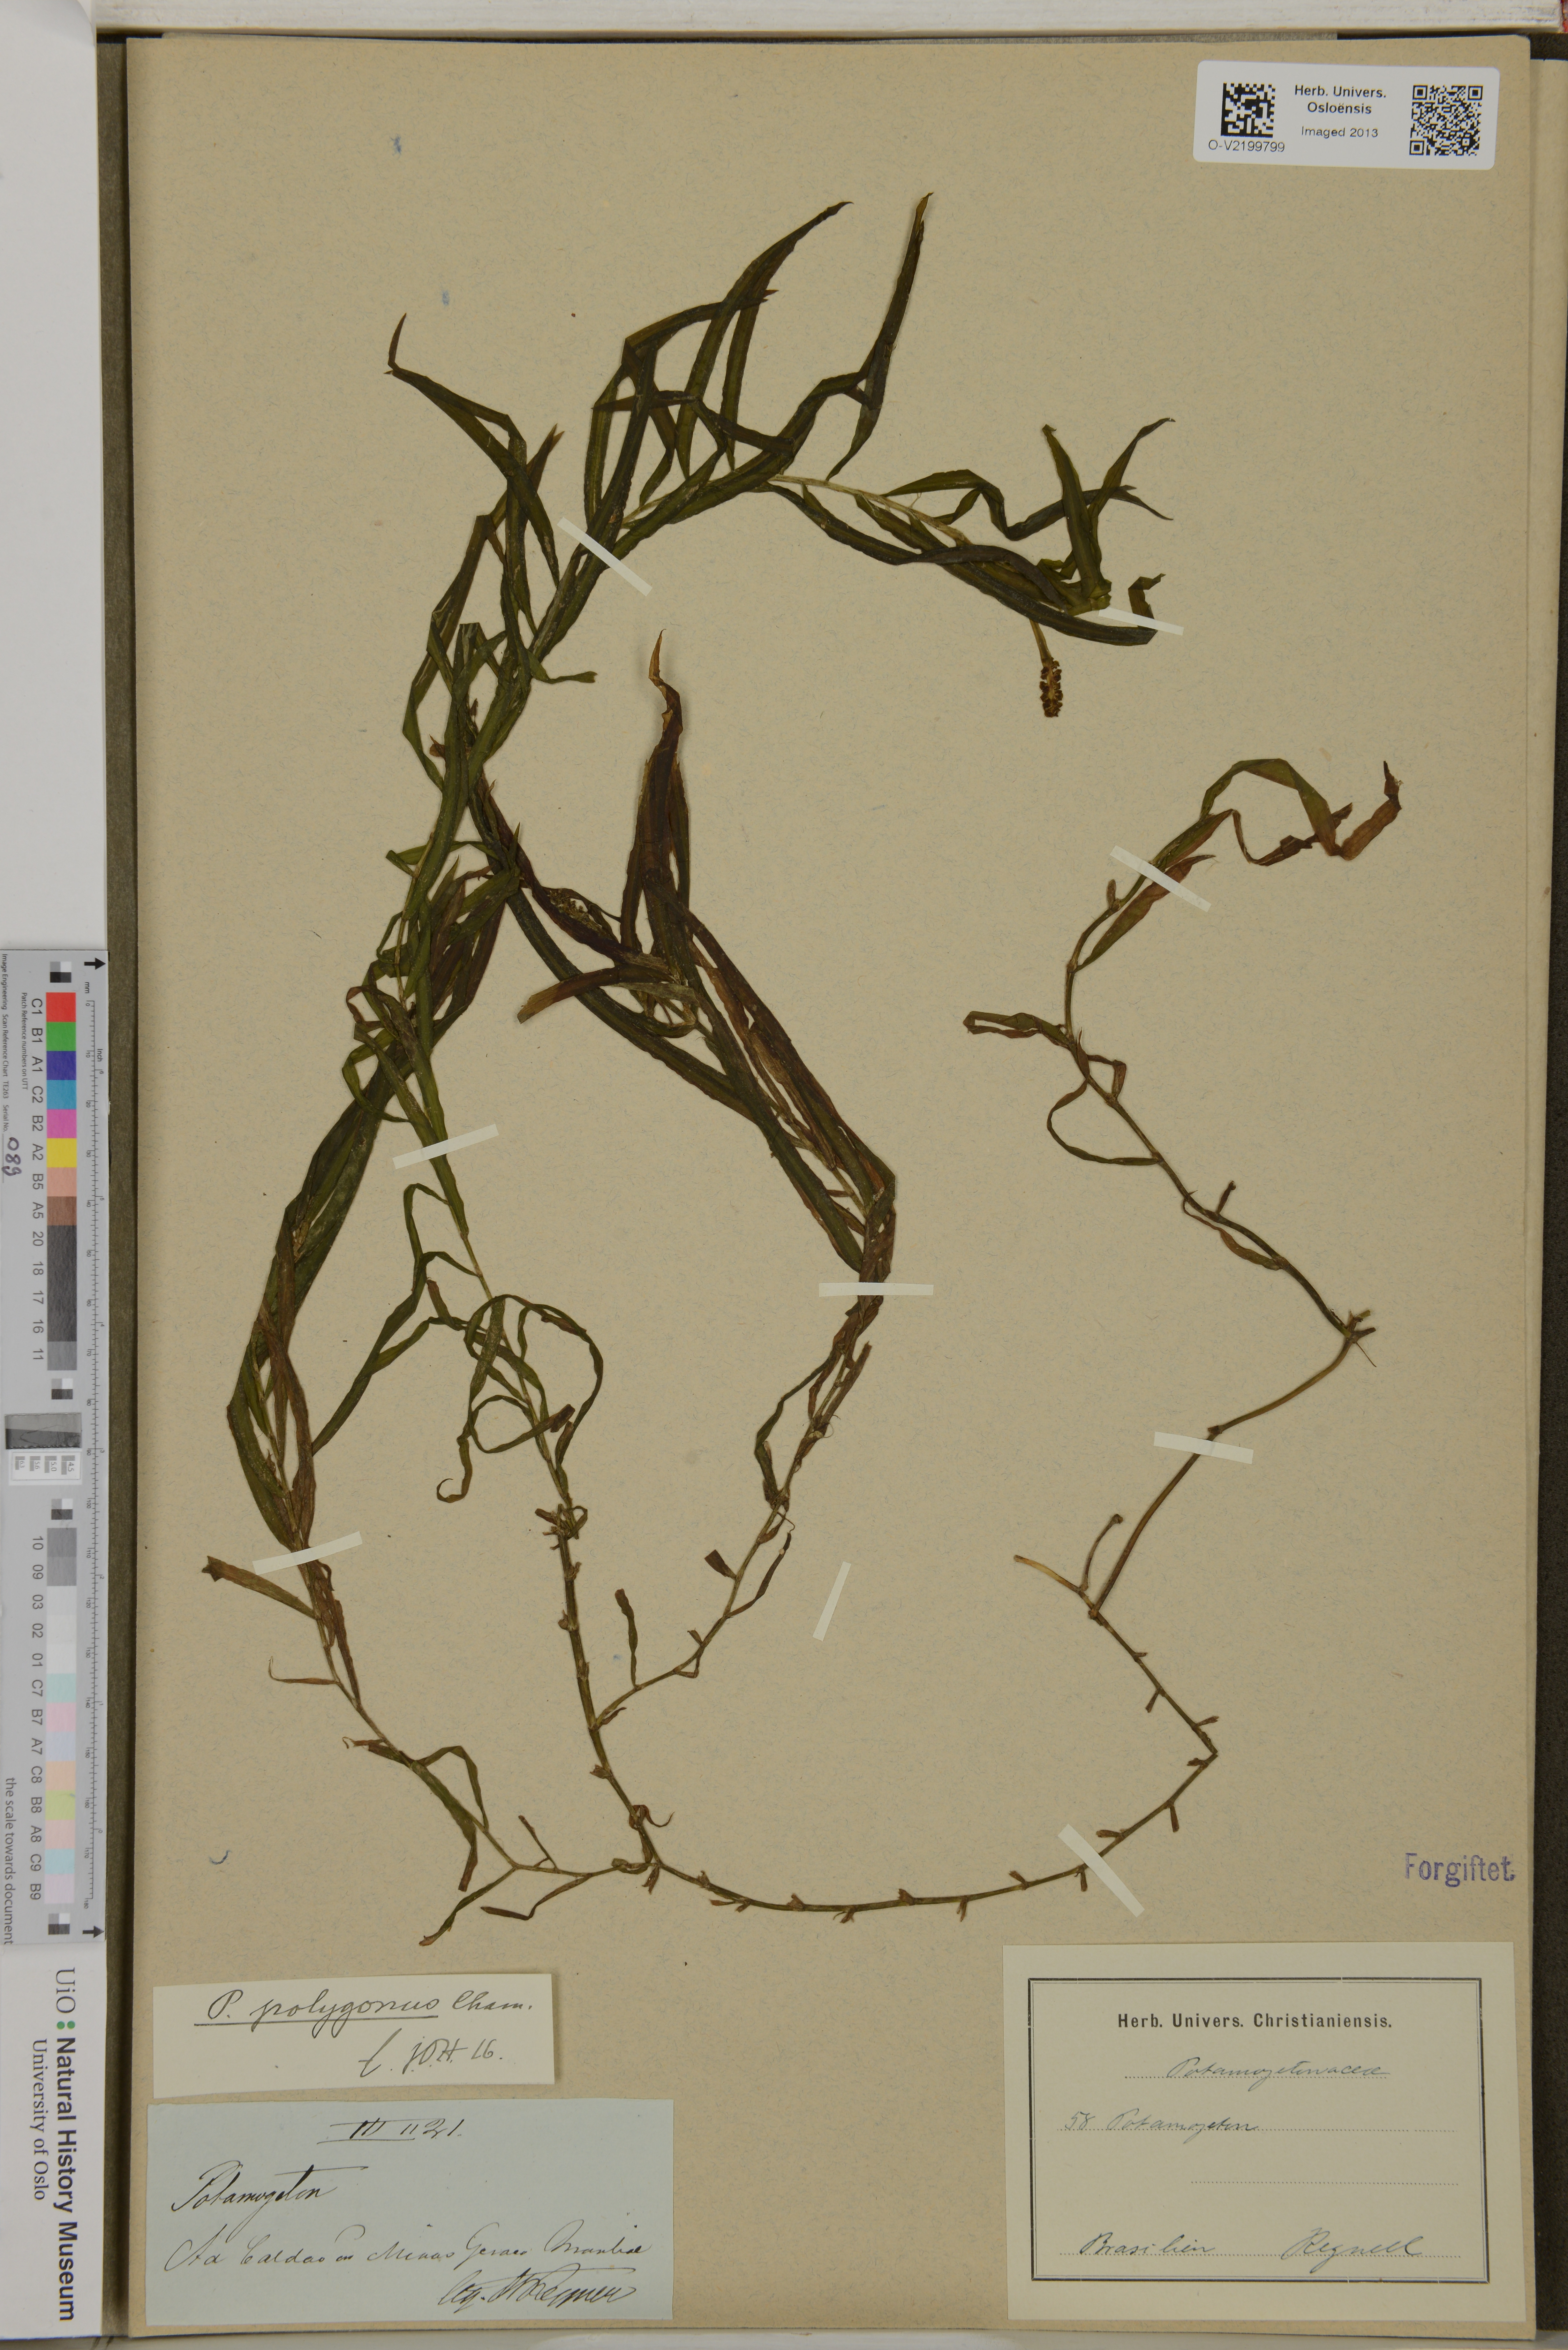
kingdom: Plantae
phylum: Tracheophyta
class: Liliopsida
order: Alismatales
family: Potamogetonaceae
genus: Potamogeton
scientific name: Potamogeton polygonus
